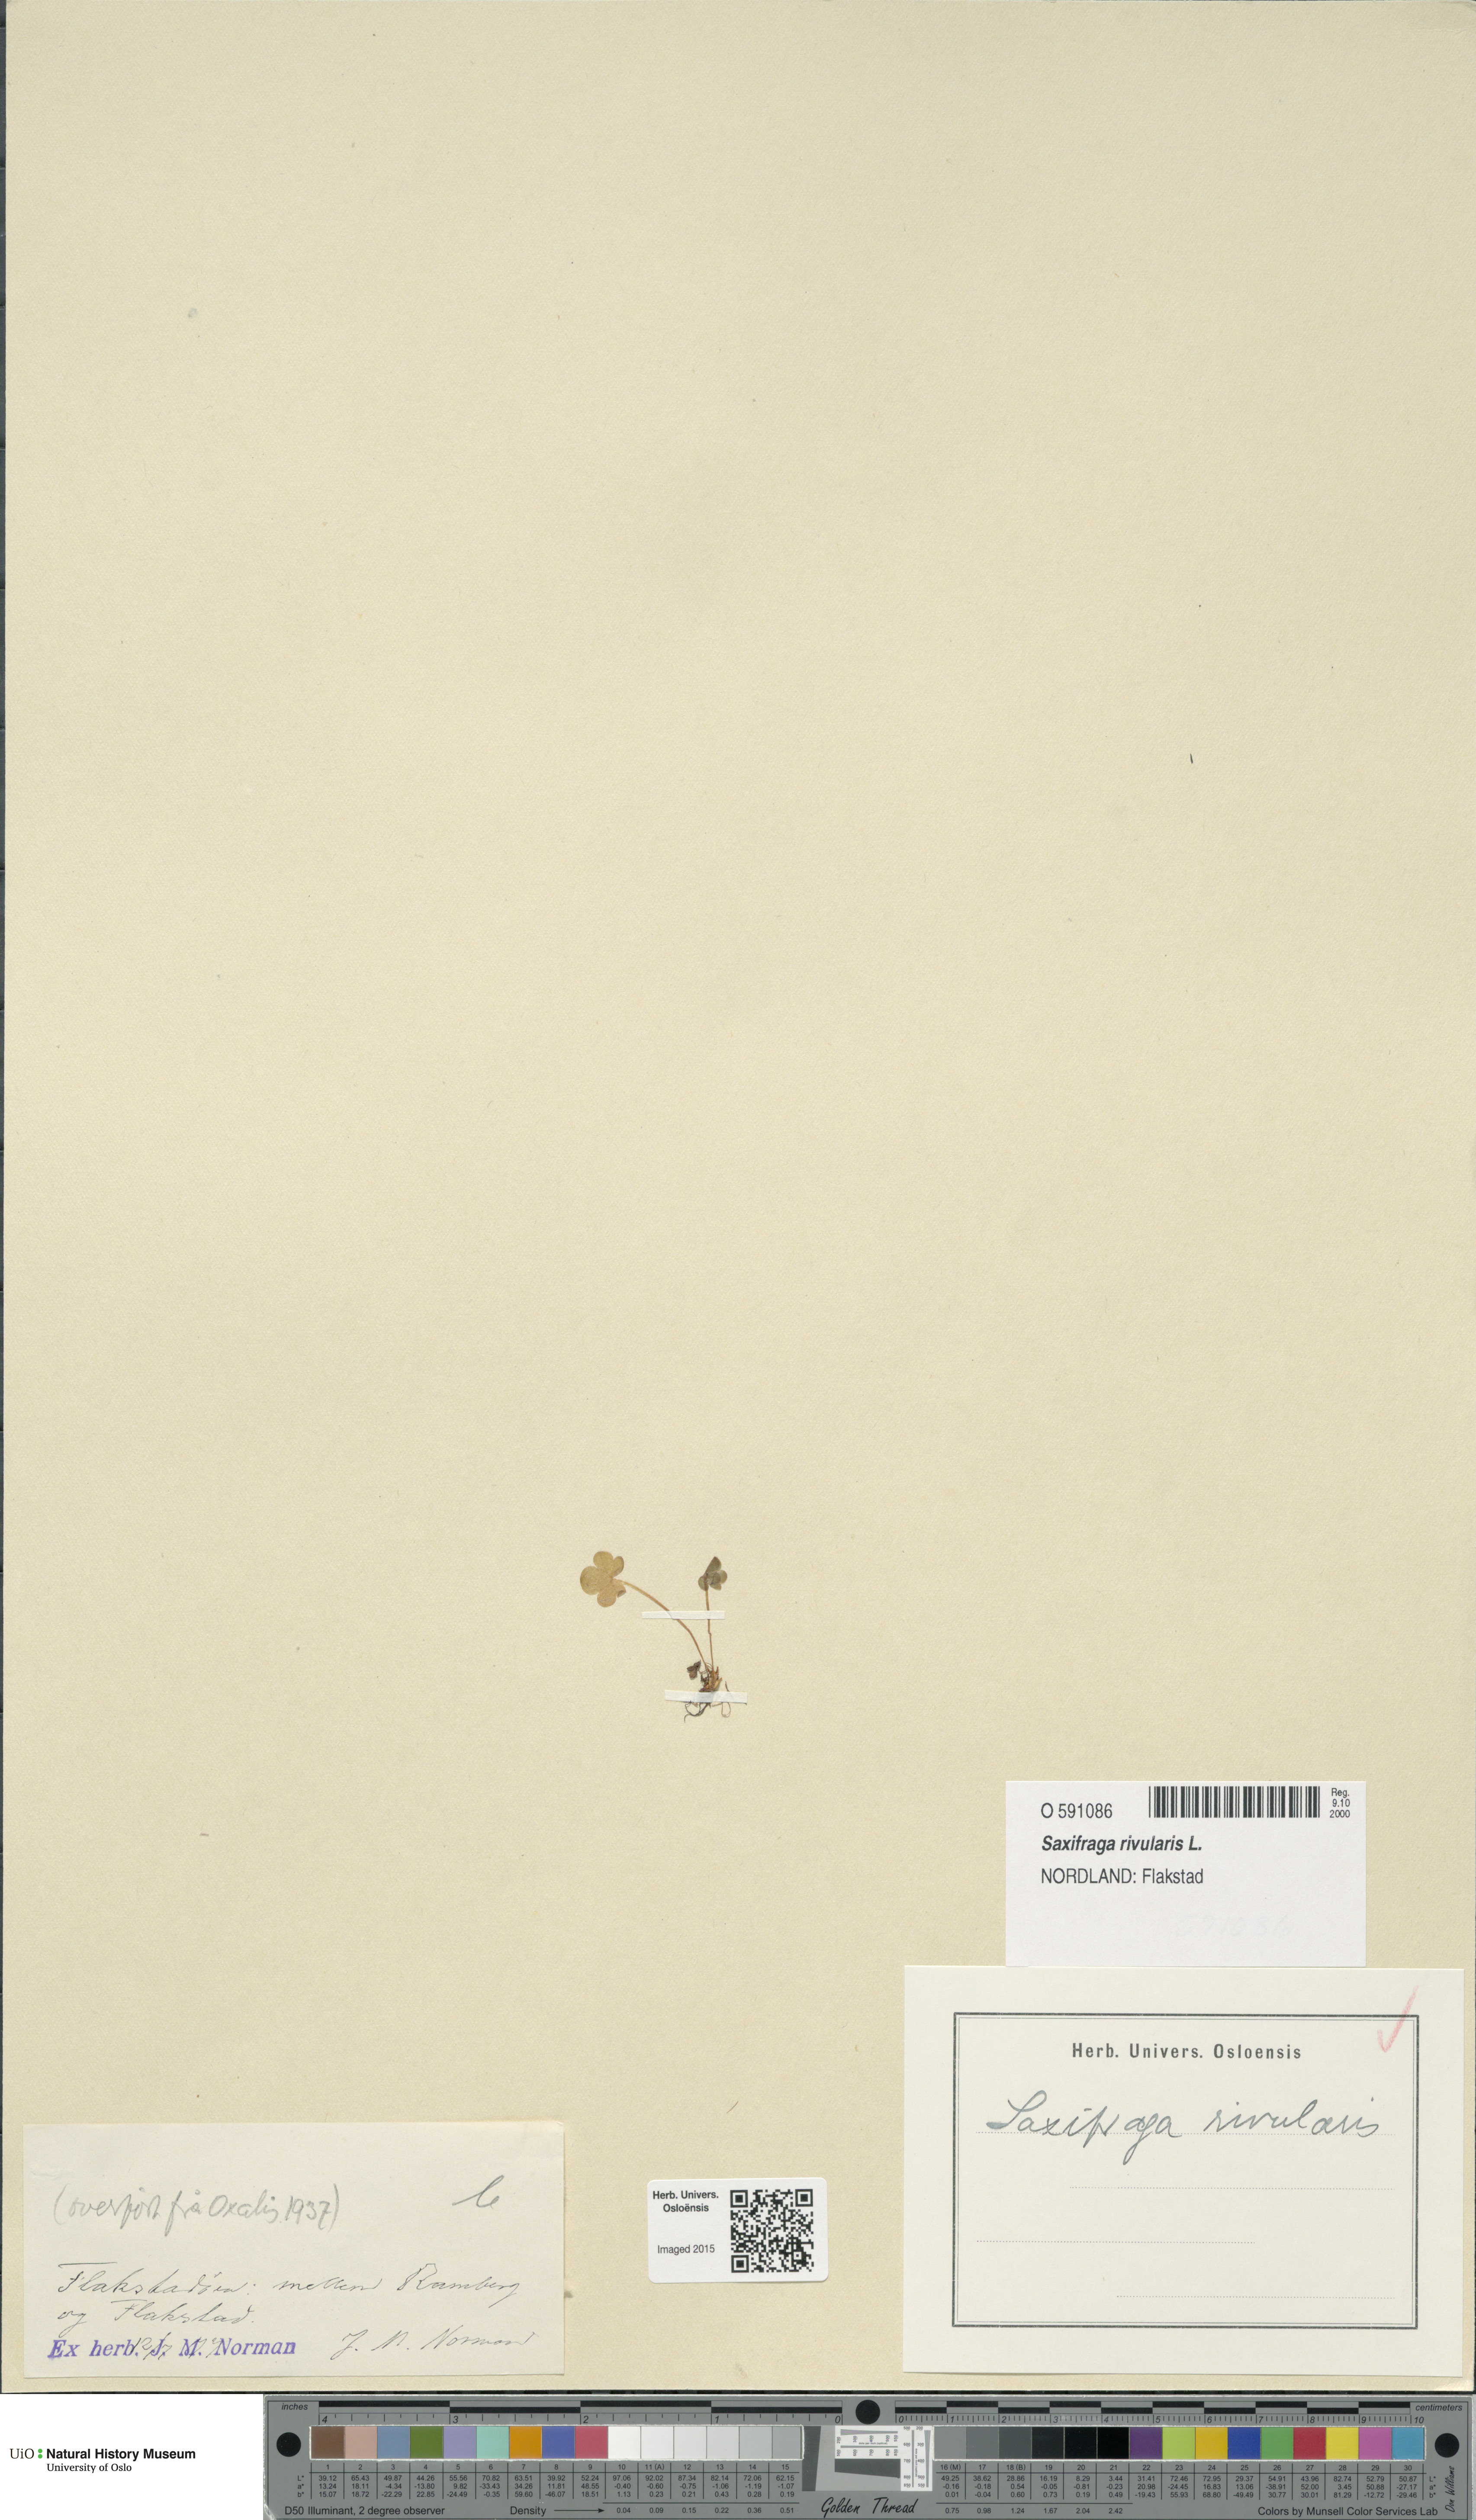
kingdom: Plantae
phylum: Tracheophyta
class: Magnoliopsida
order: Saxifragales
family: Saxifragaceae
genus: Saxifraga
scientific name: Saxifraga rivularis
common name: Highland saxifrage
